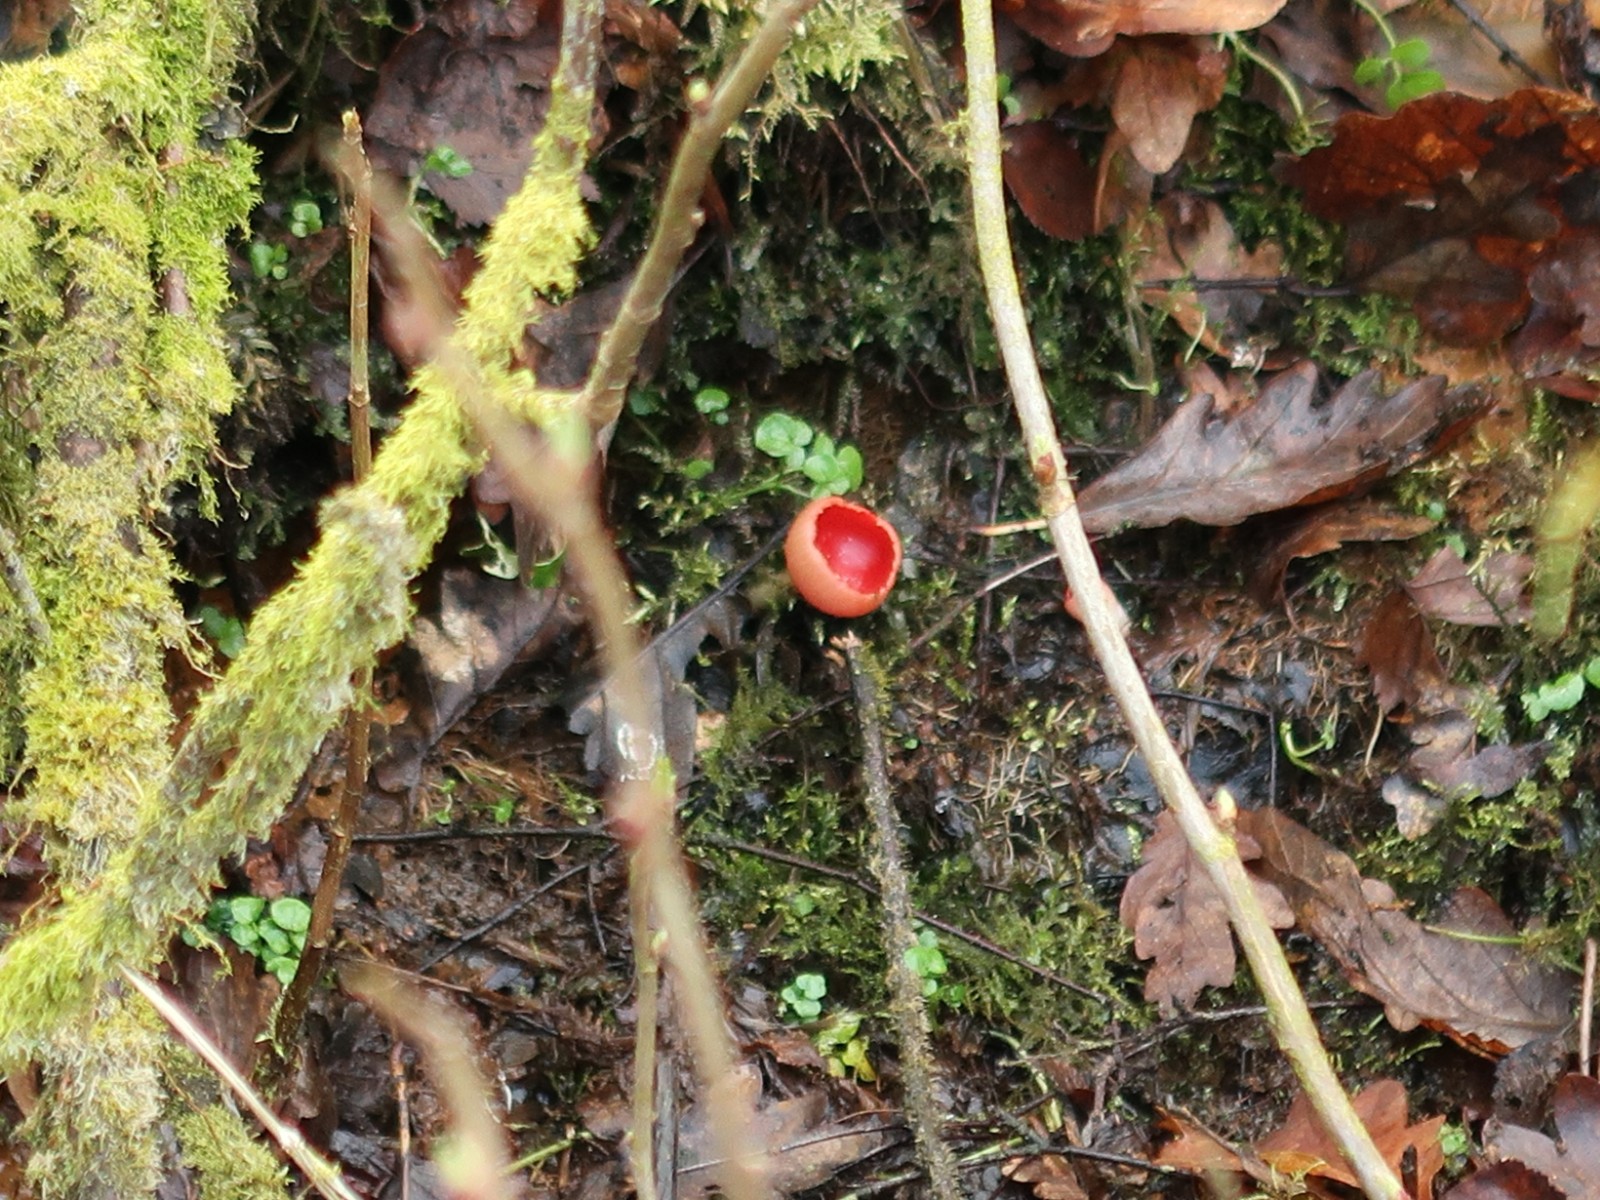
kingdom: Fungi
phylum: Ascomycota
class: Pezizomycetes
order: Pezizales
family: Sarcoscyphaceae
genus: Sarcoscypha
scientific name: Sarcoscypha austriaca
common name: krølhåret pragtbæger
